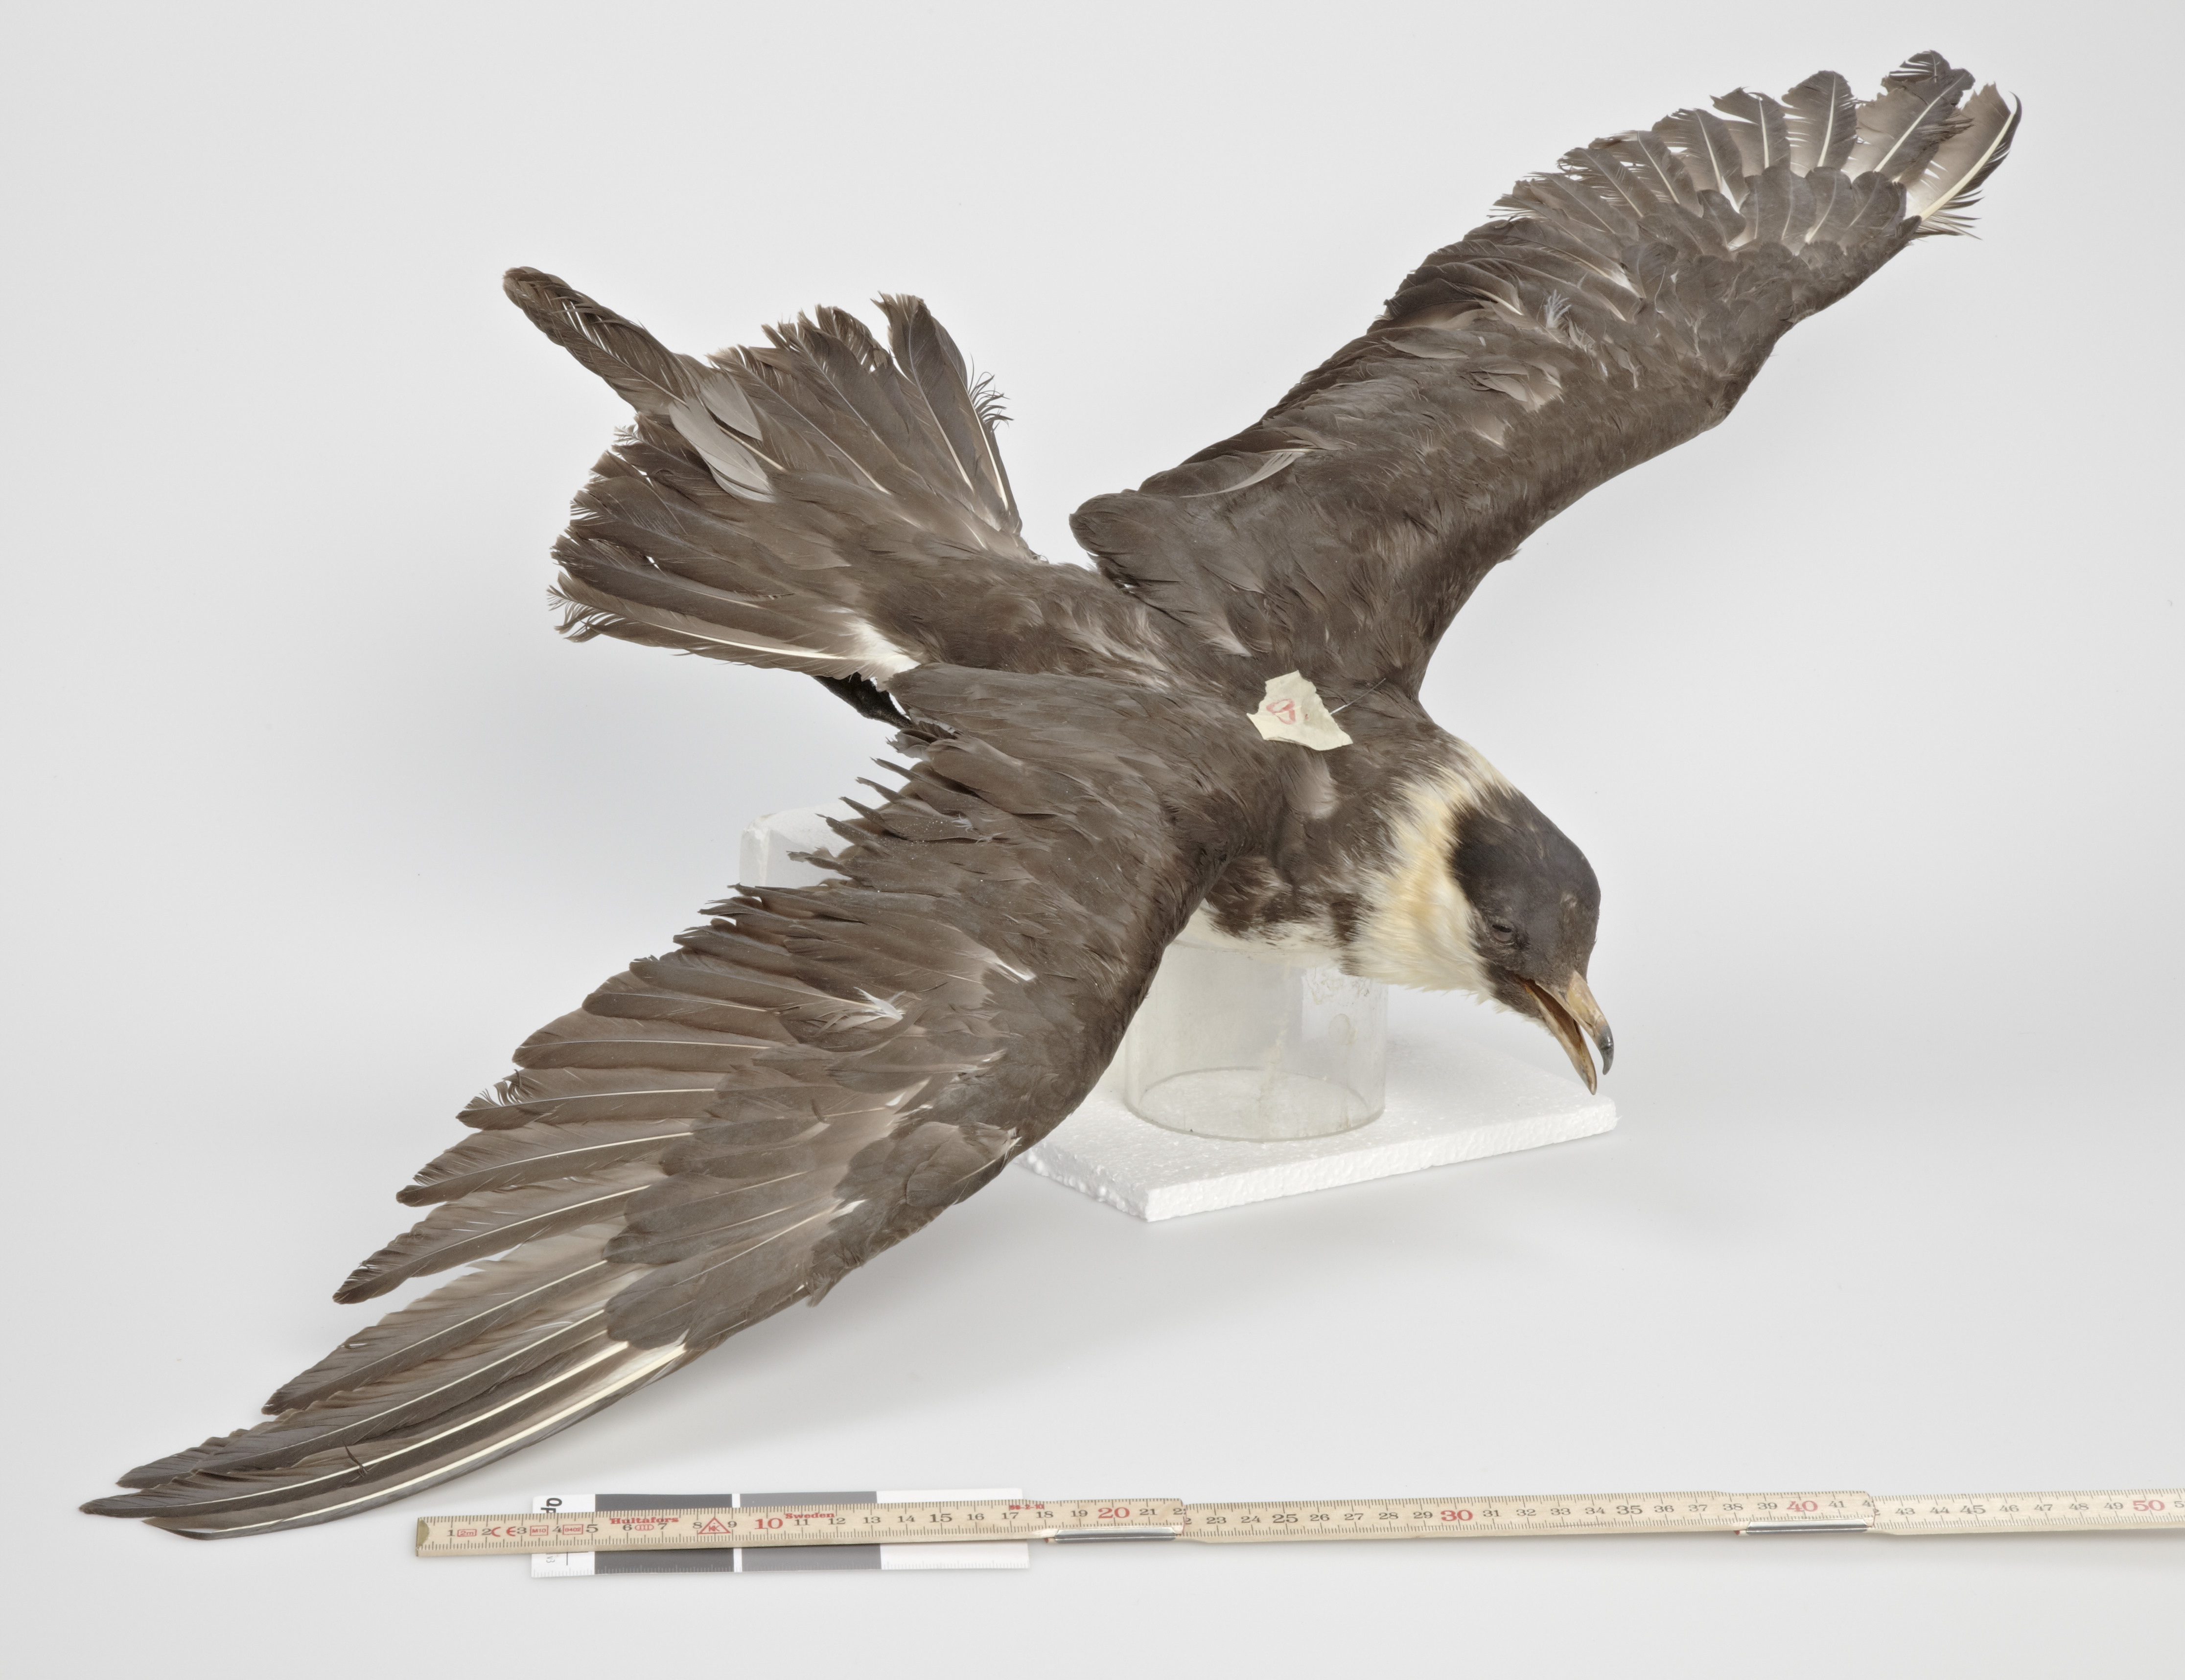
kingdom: Animalia
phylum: Chordata
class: Aves
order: Charadriiformes
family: Stercorariidae
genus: Stercorarius
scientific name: Stercorarius pomarinus
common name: Pomarine jaeger
